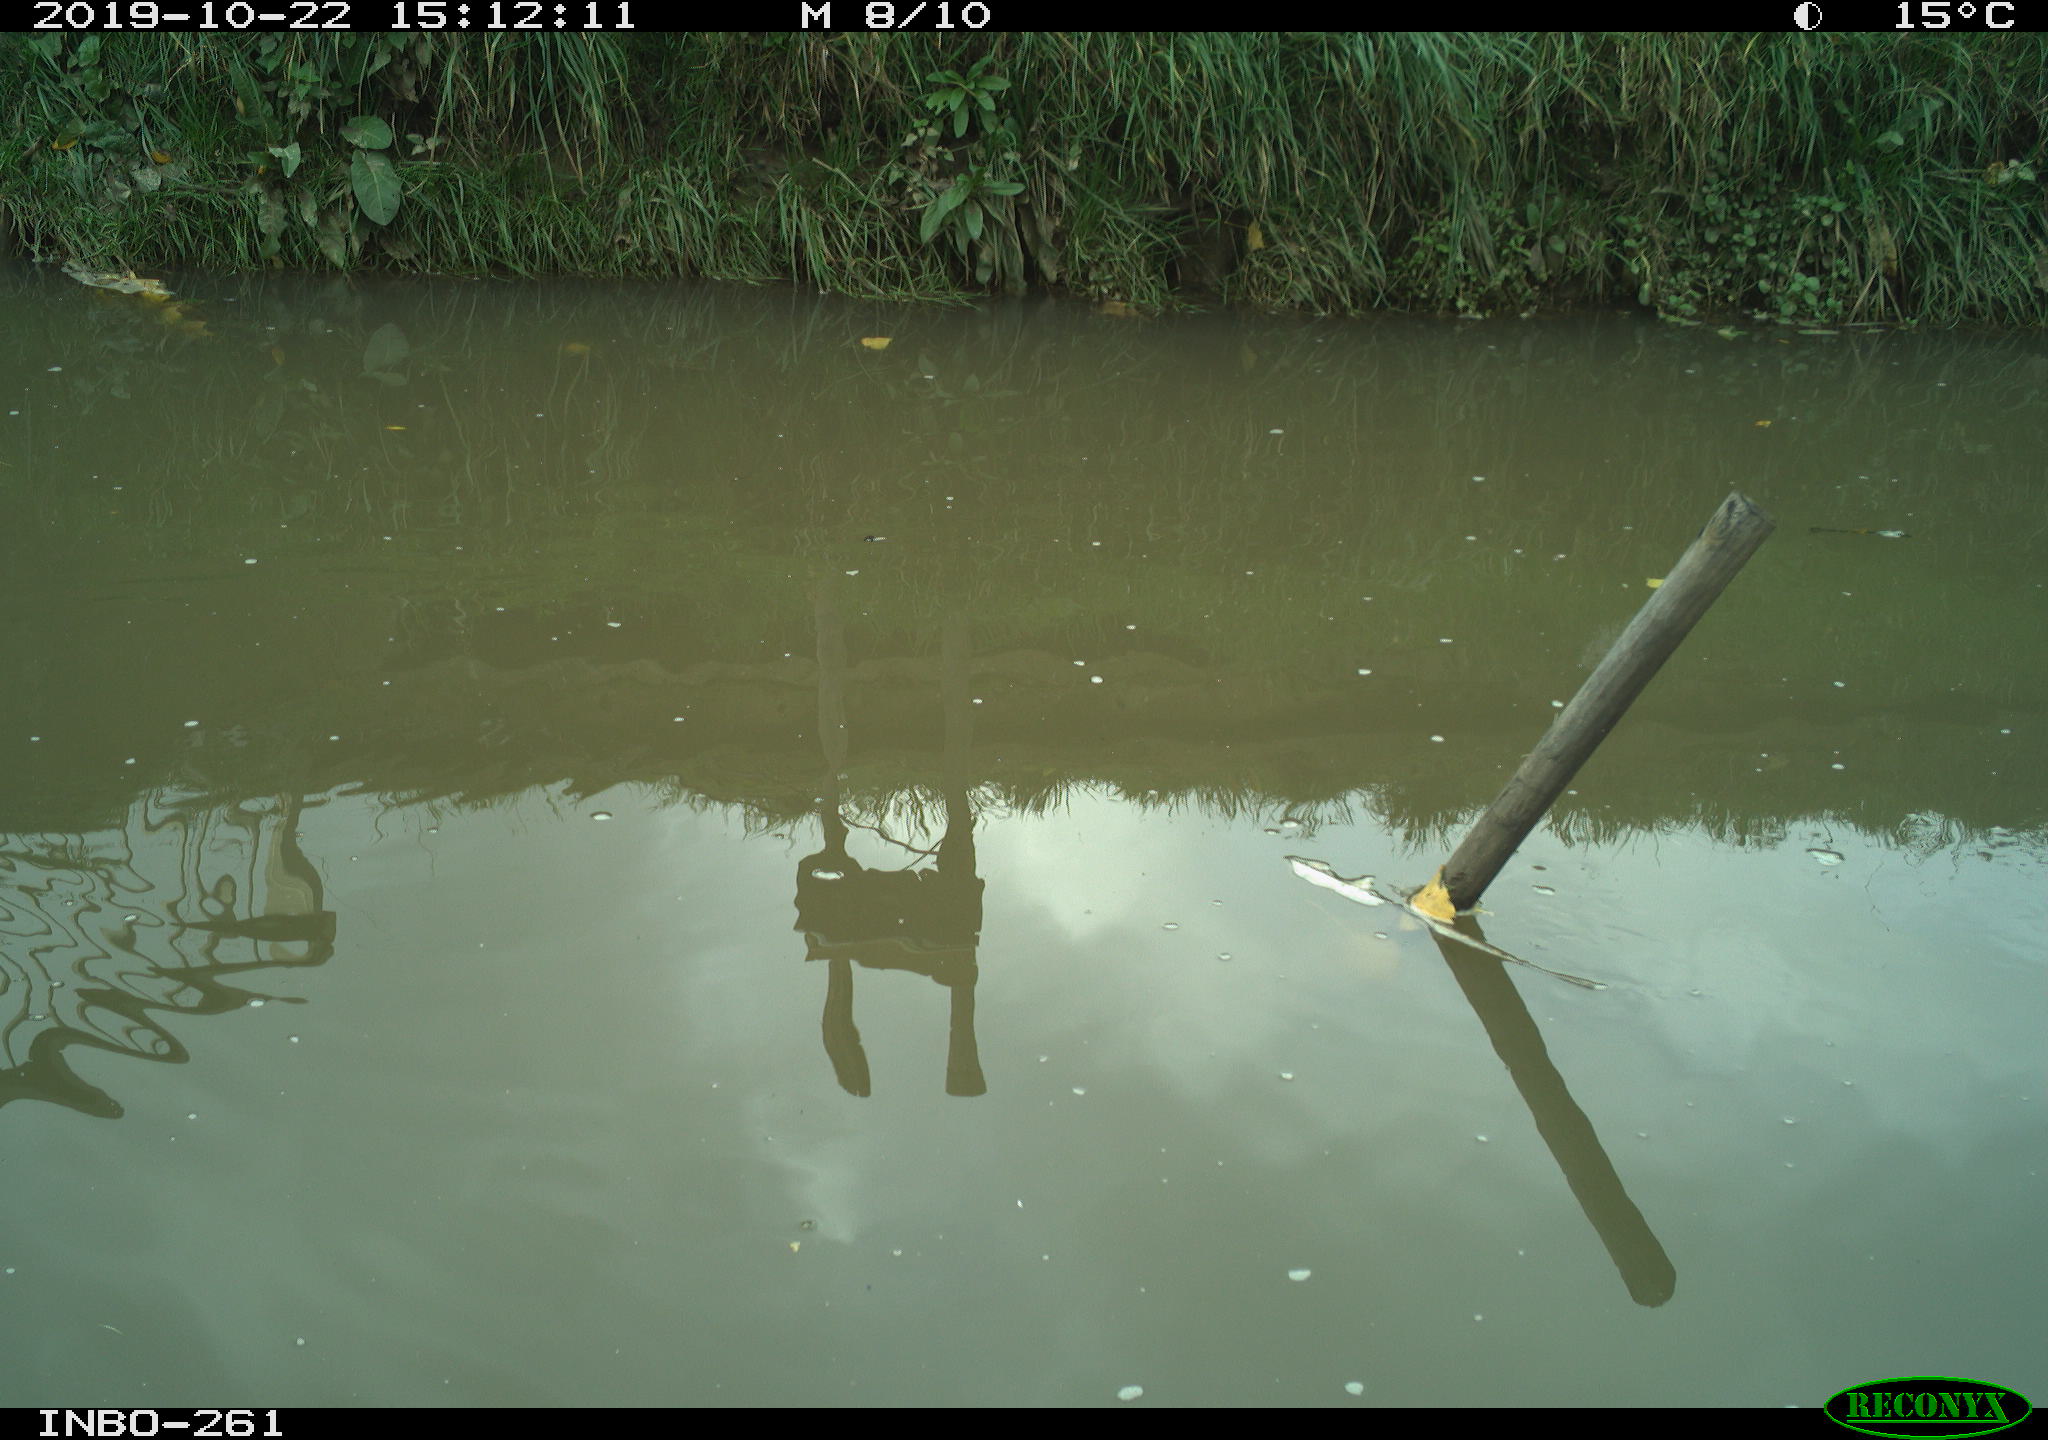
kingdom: Animalia
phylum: Chordata
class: Aves
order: Gruiformes
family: Rallidae
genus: Gallinula
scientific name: Gallinula chloropus
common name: Common moorhen
